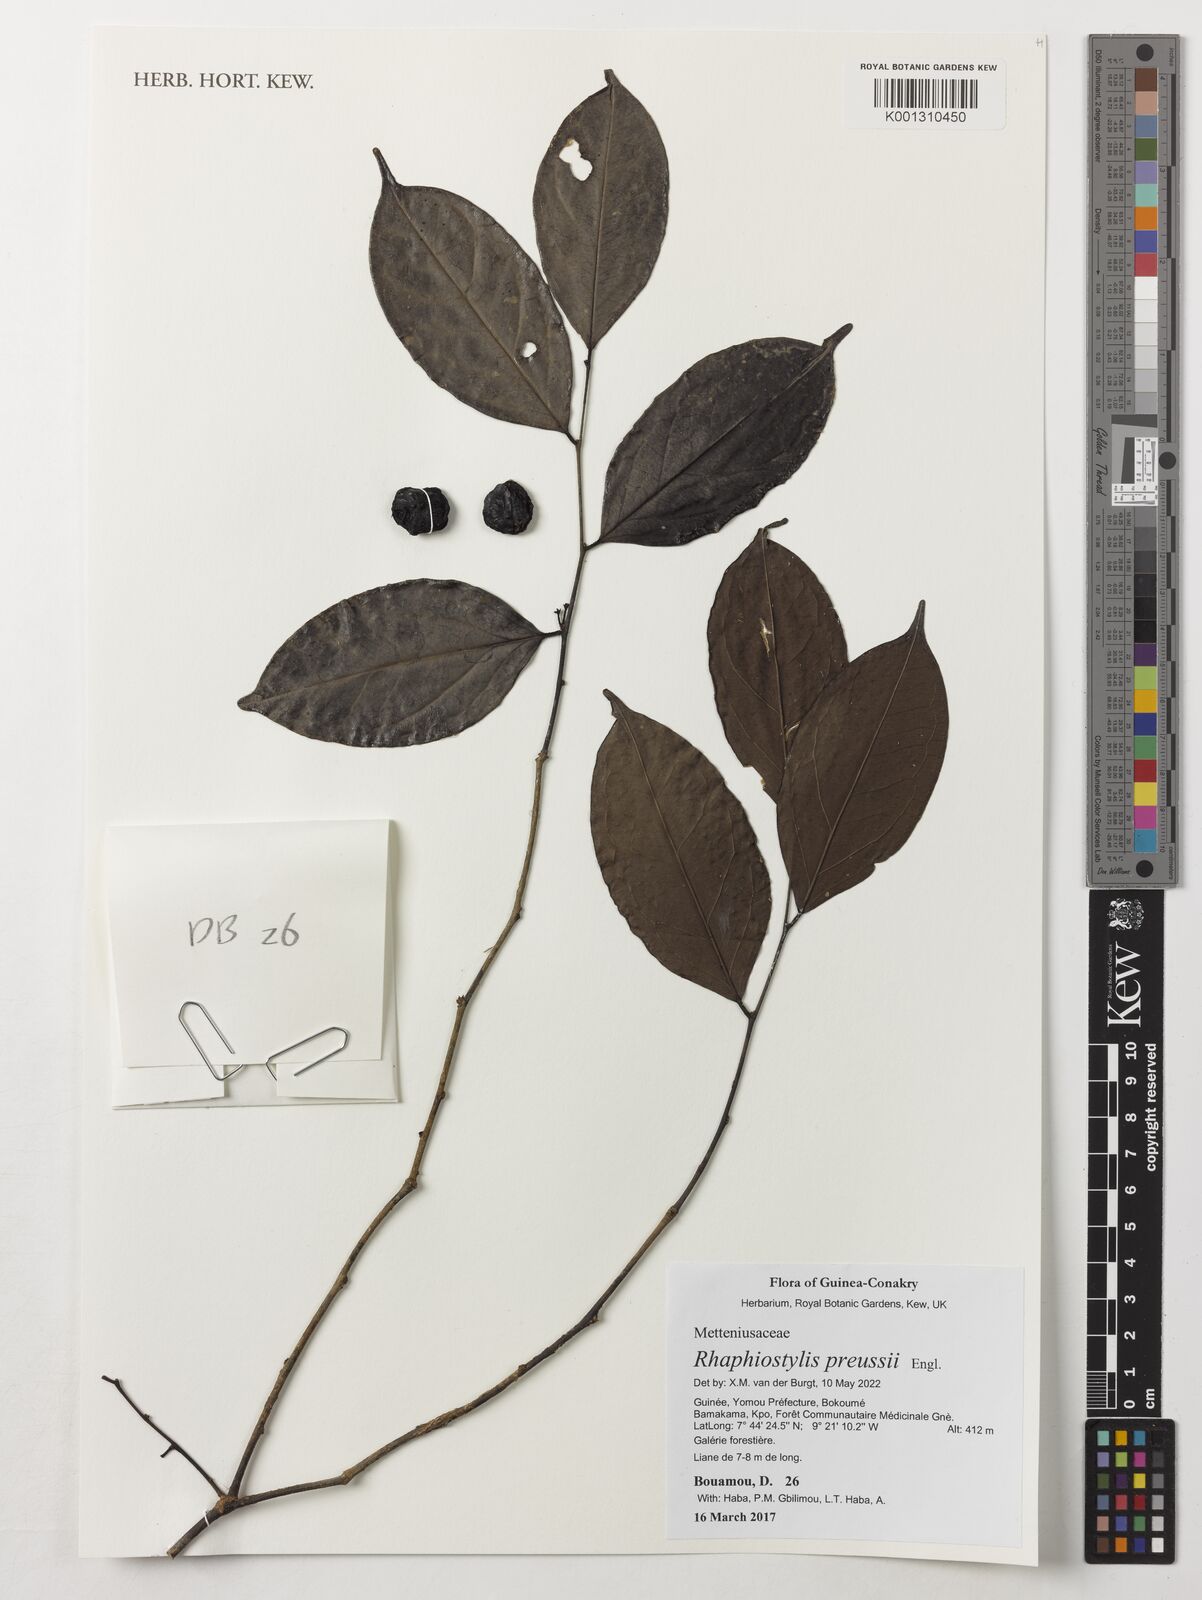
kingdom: Plantae
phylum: Tracheophyta
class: Magnoliopsida
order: Metteniusales
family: Metteniusaceae
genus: Rhaphiostylis
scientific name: Rhaphiostylis preussii
